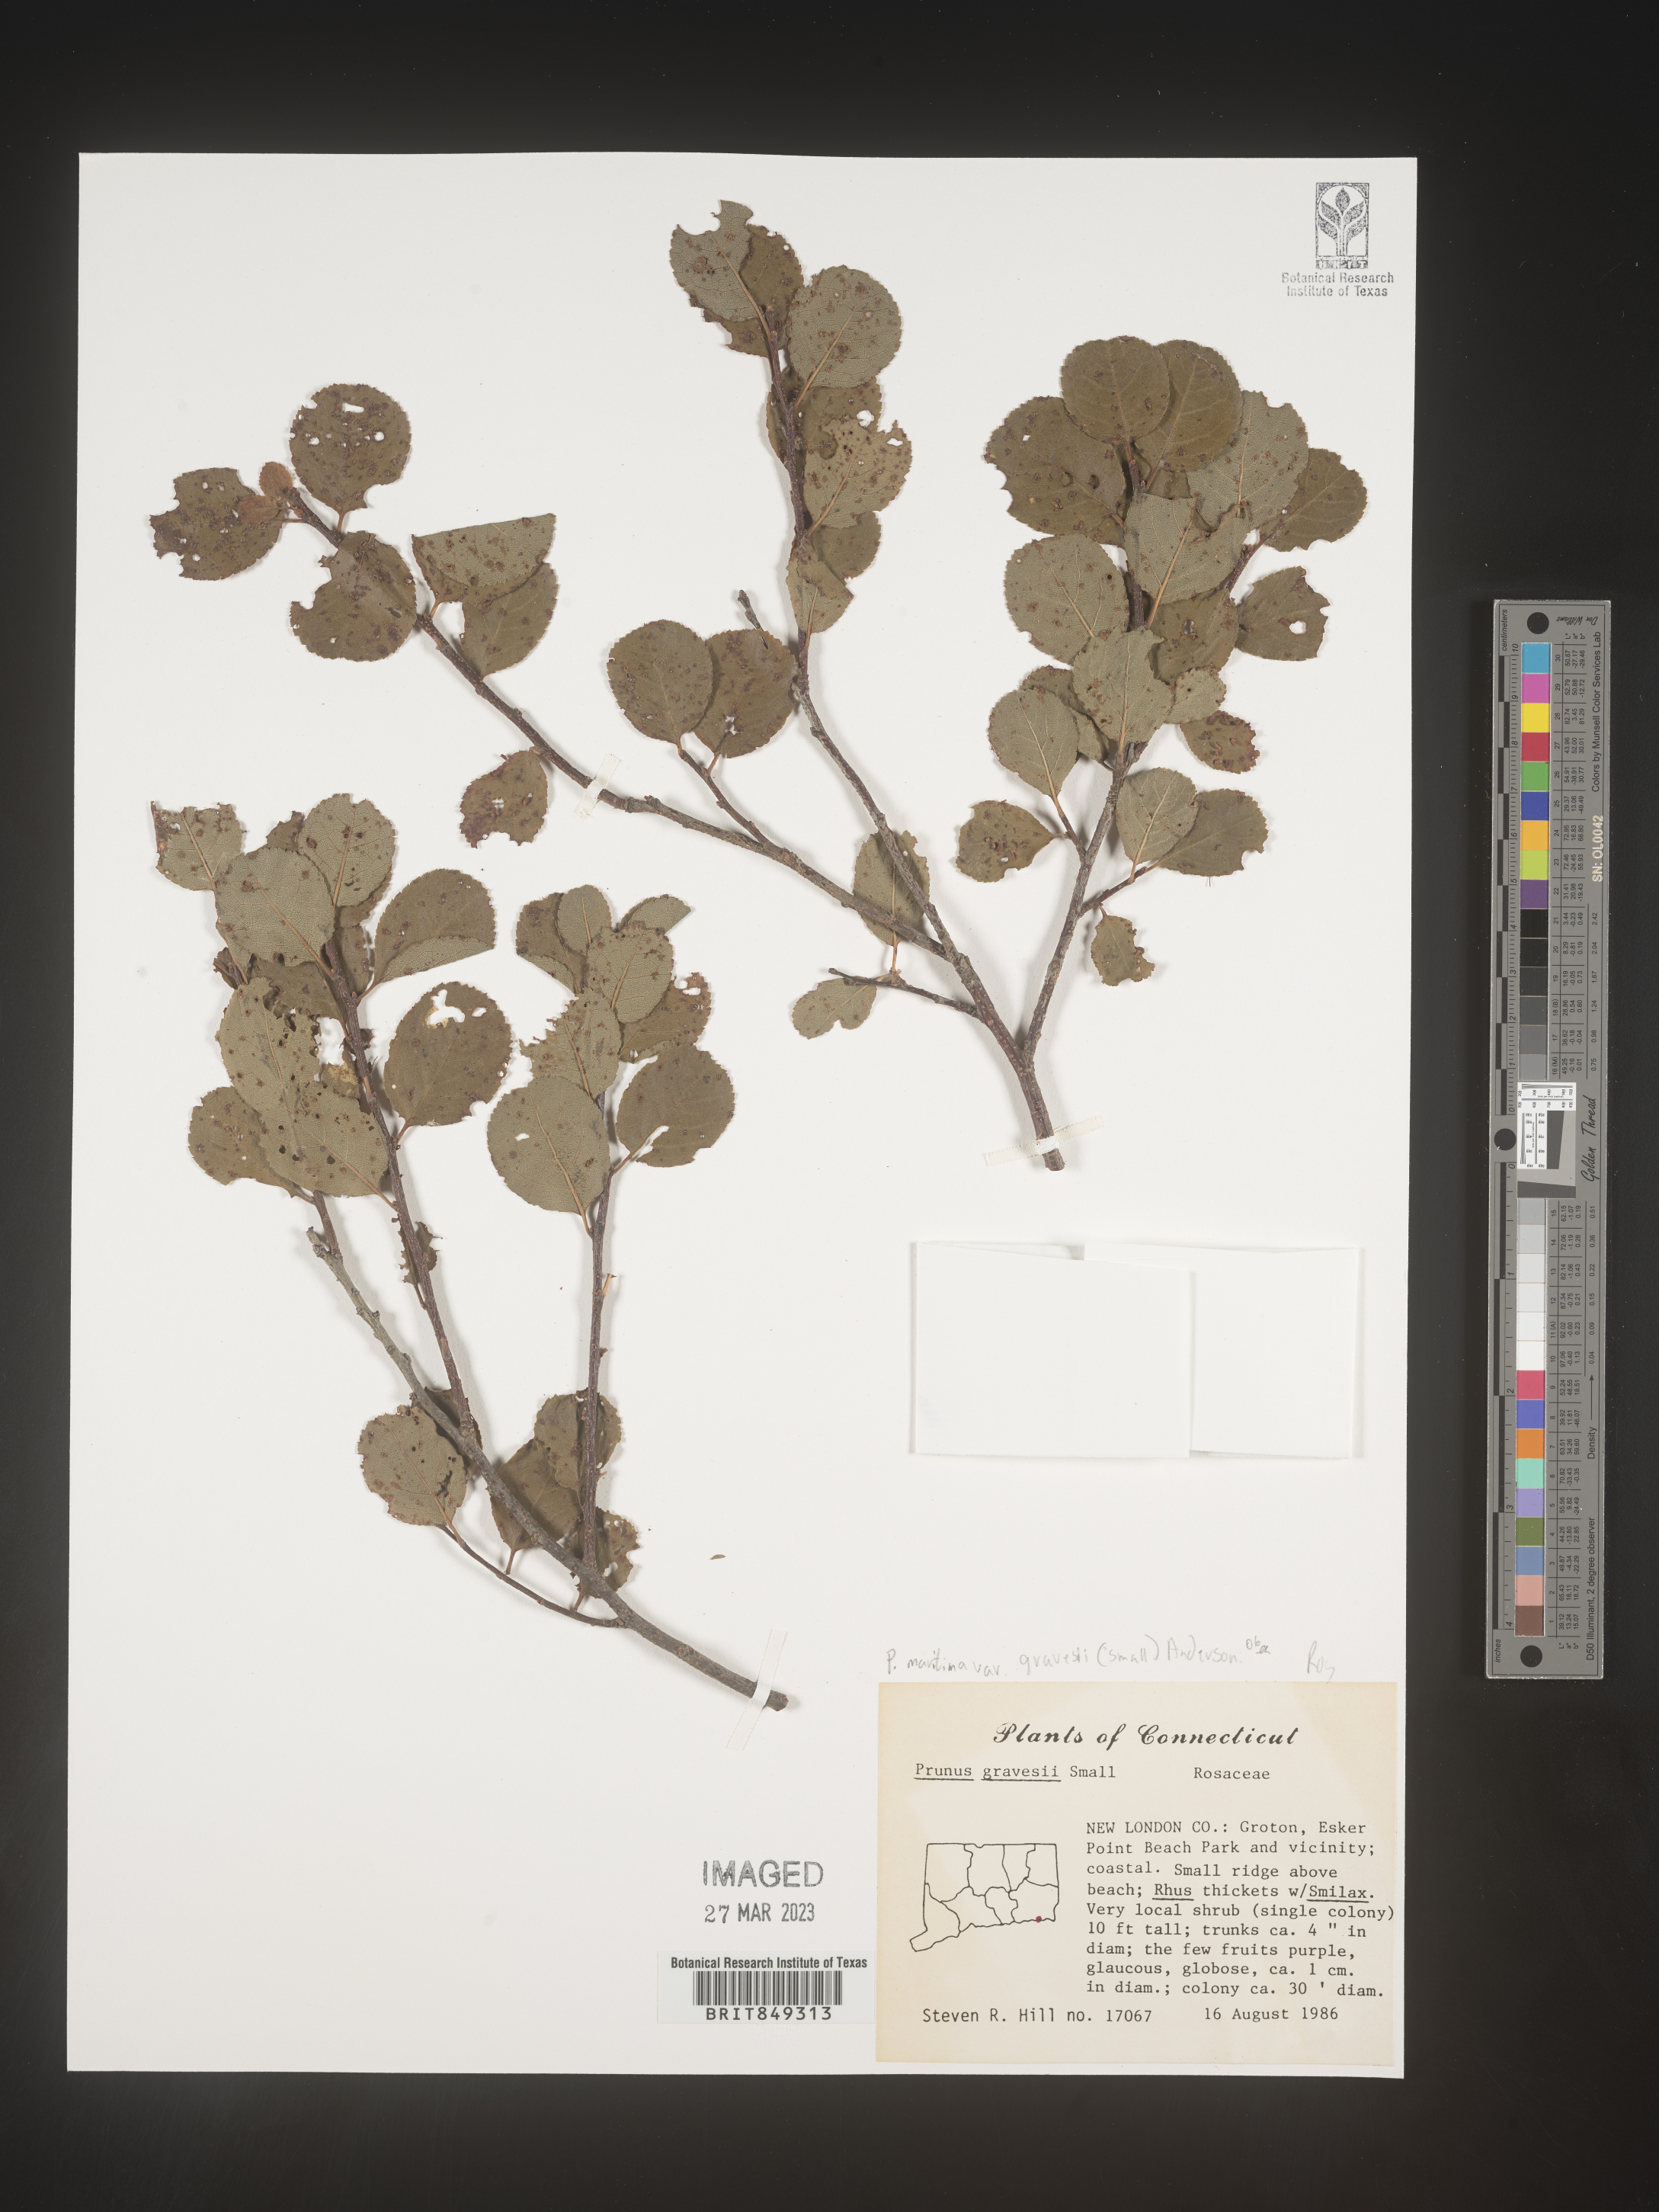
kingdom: Plantae
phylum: Tracheophyta
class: Magnoliopsida
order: Rosales
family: Rosaceae
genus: Prunus
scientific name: Prunus maritima
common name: Beach plum
